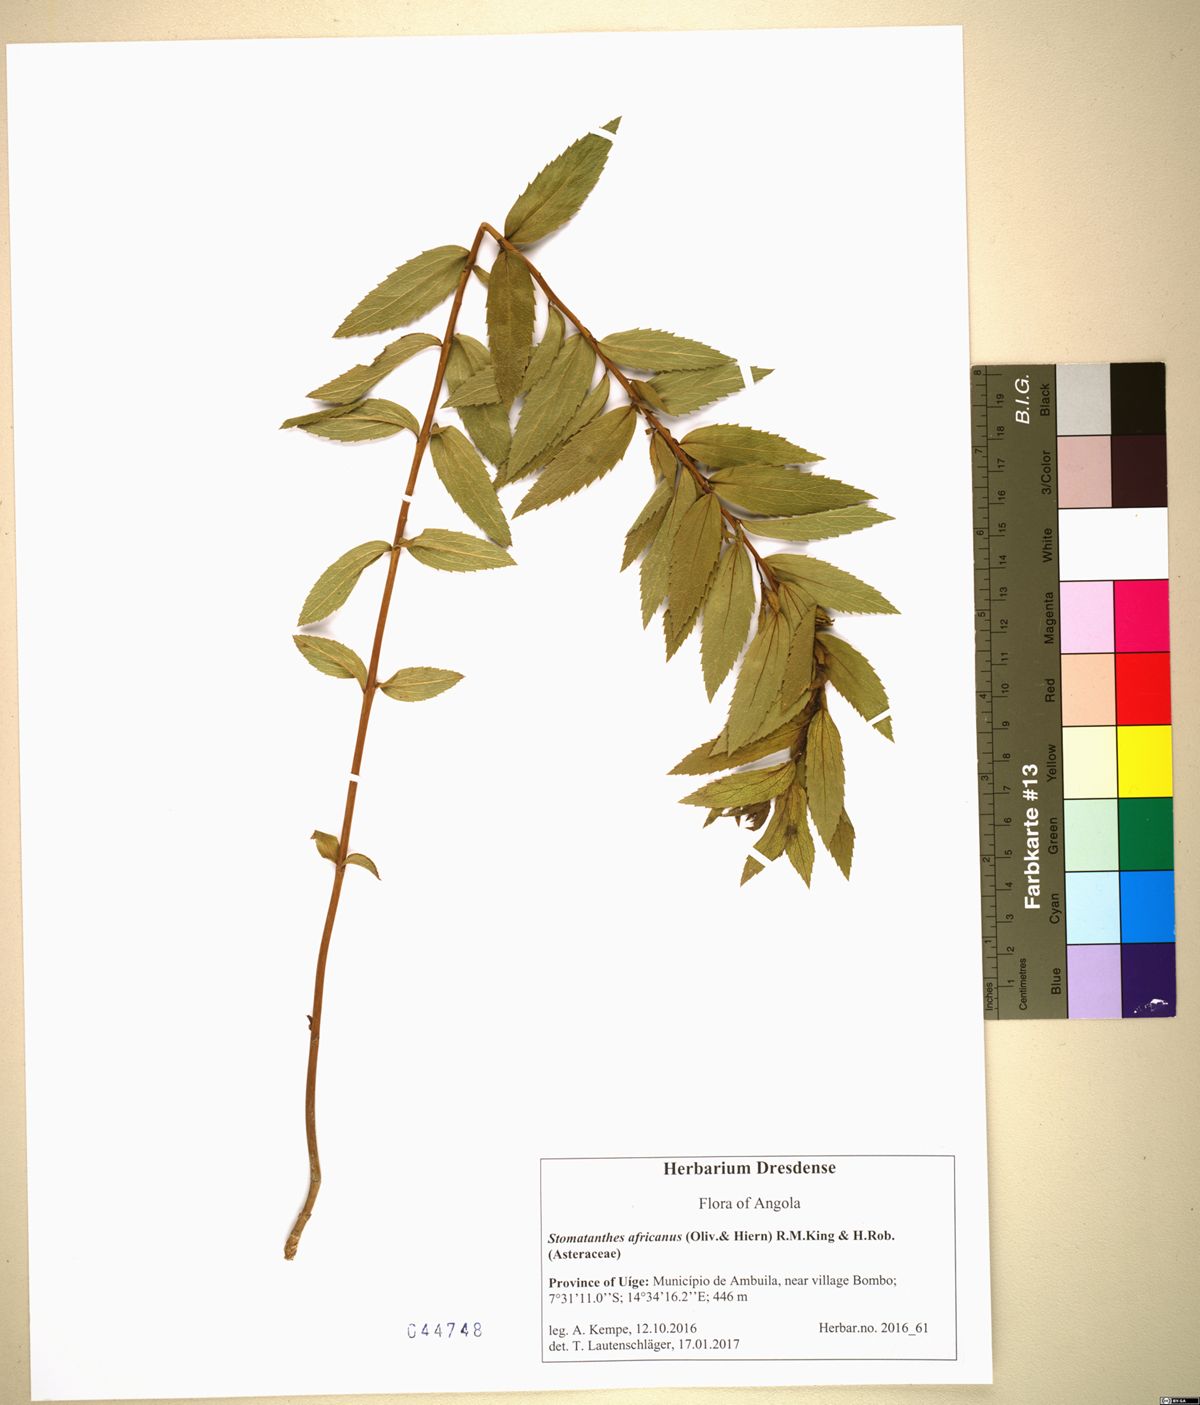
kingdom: Plantae
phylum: Tracheophyta
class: Magnoliopsida
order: Asterales
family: Asteraceae
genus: Stomatanthes
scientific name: Stomatanthes africanus
